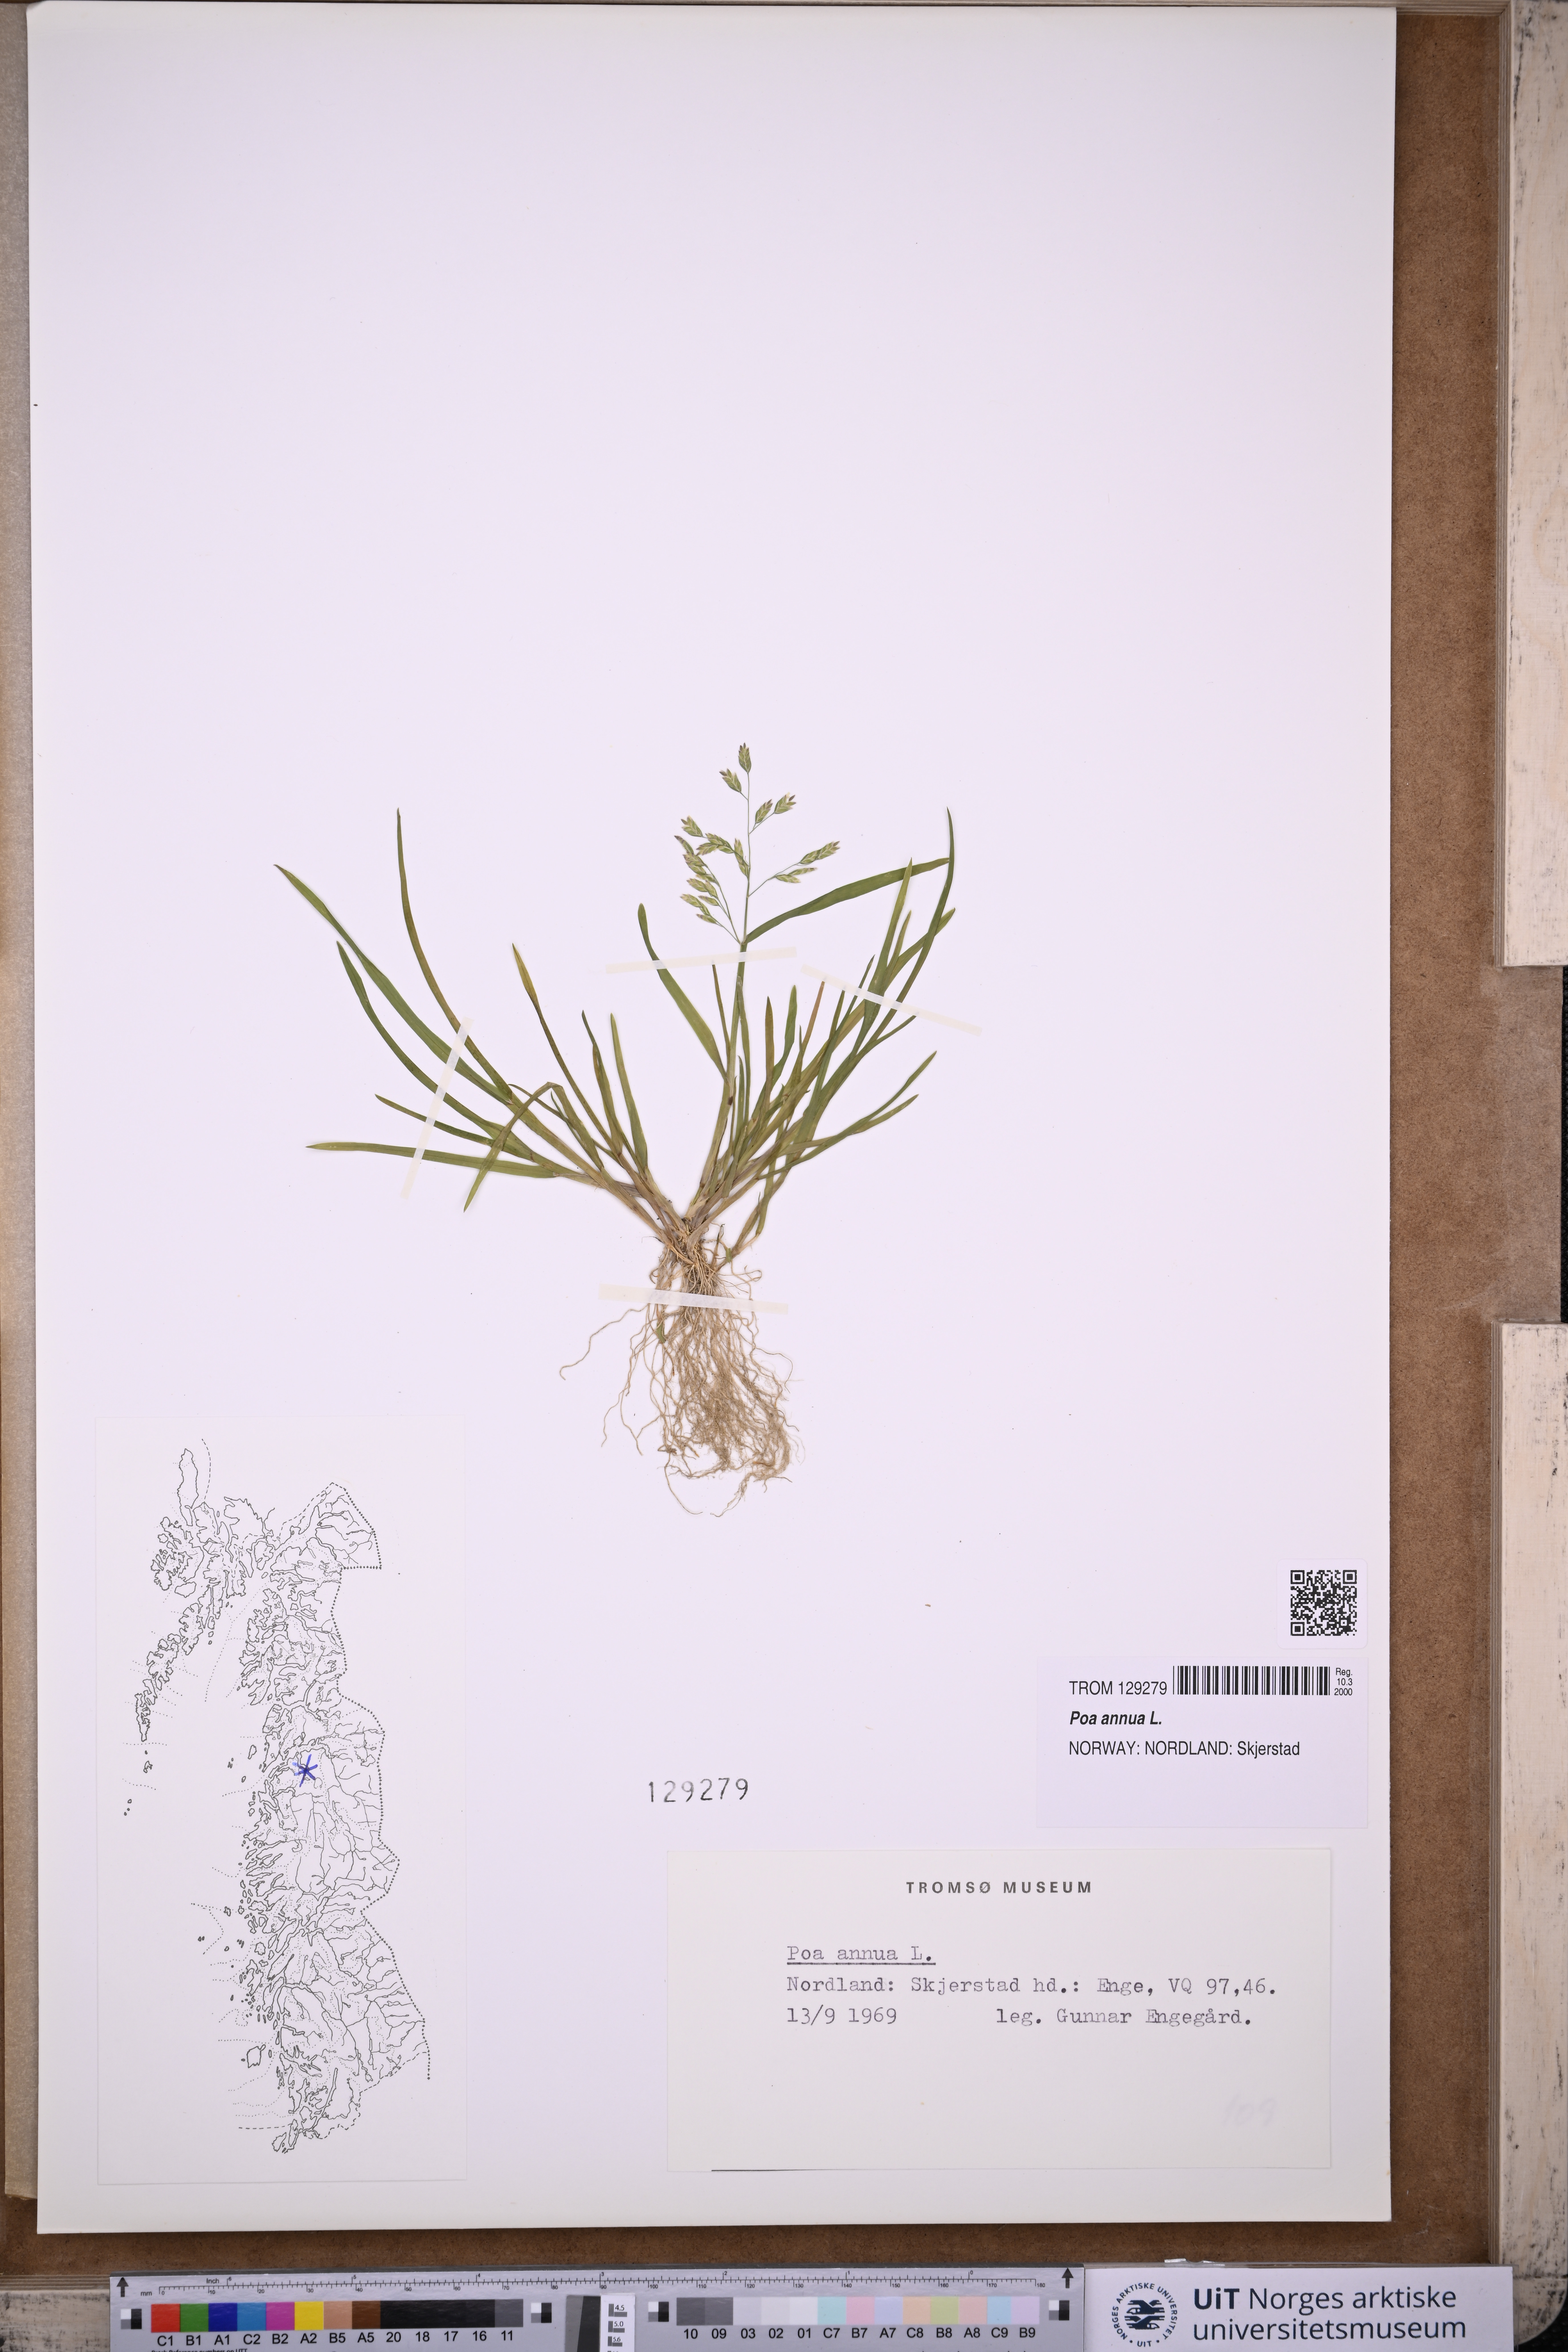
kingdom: Plantae
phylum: Tracheophyta
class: Liliopsida
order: Poales
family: Poaceae
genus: Poa
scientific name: Poa annua
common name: Annual bluegrass
